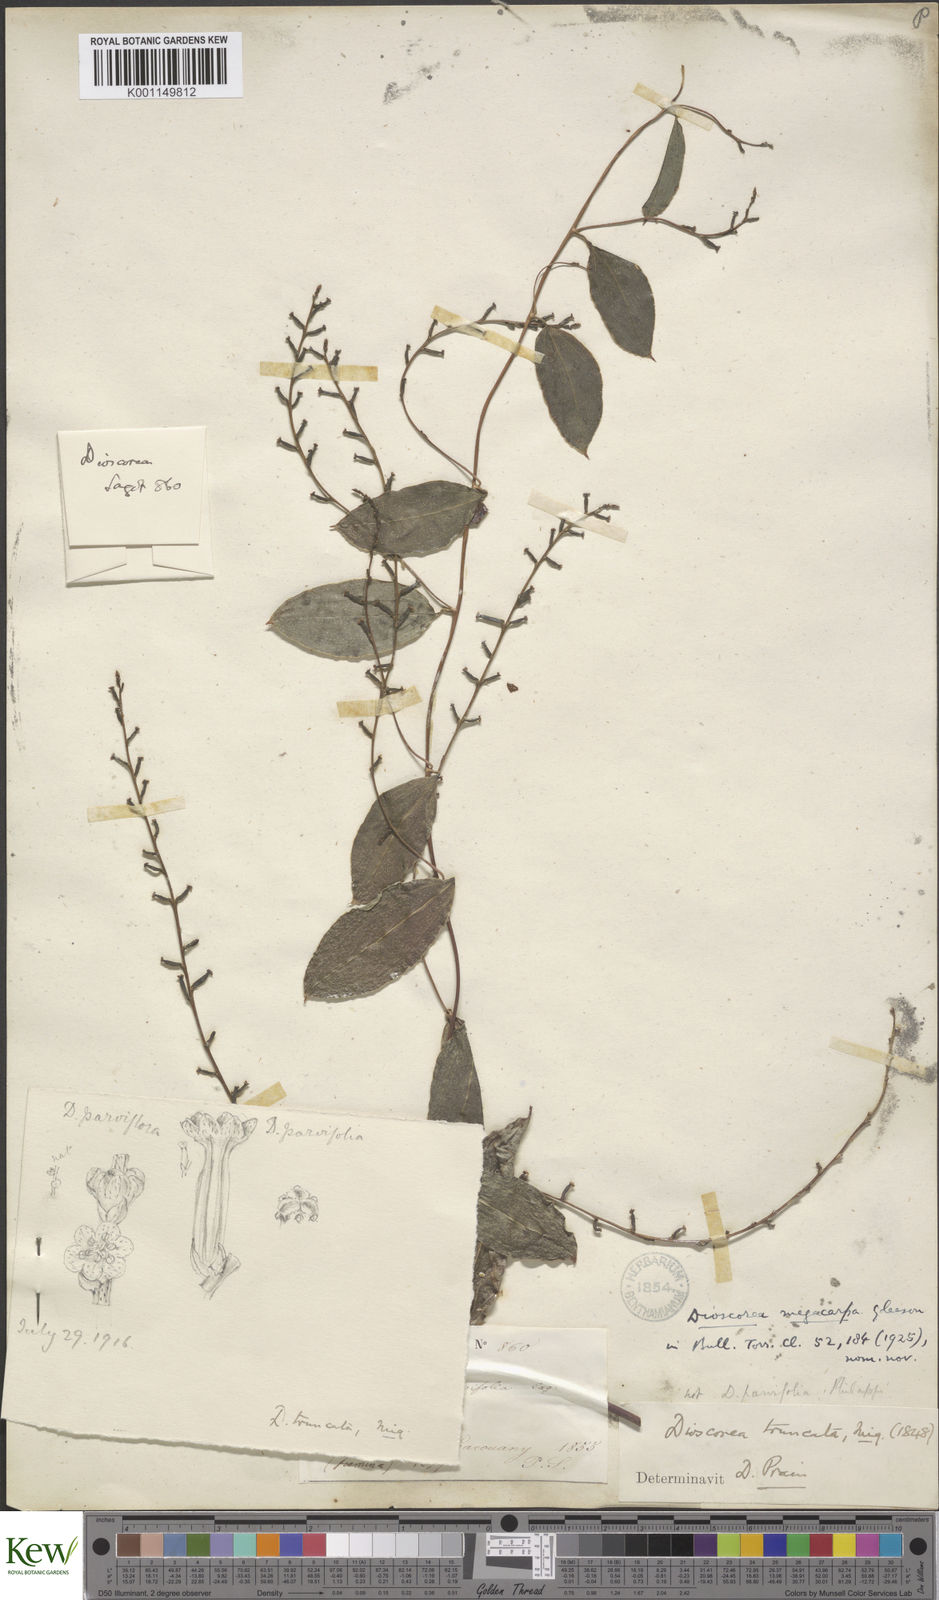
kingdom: Plantae
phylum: Tracheophyta
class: Liliopsida
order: Dioscoreales
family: Dioscoreaceae
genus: Dioscorea
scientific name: Dioscorea
